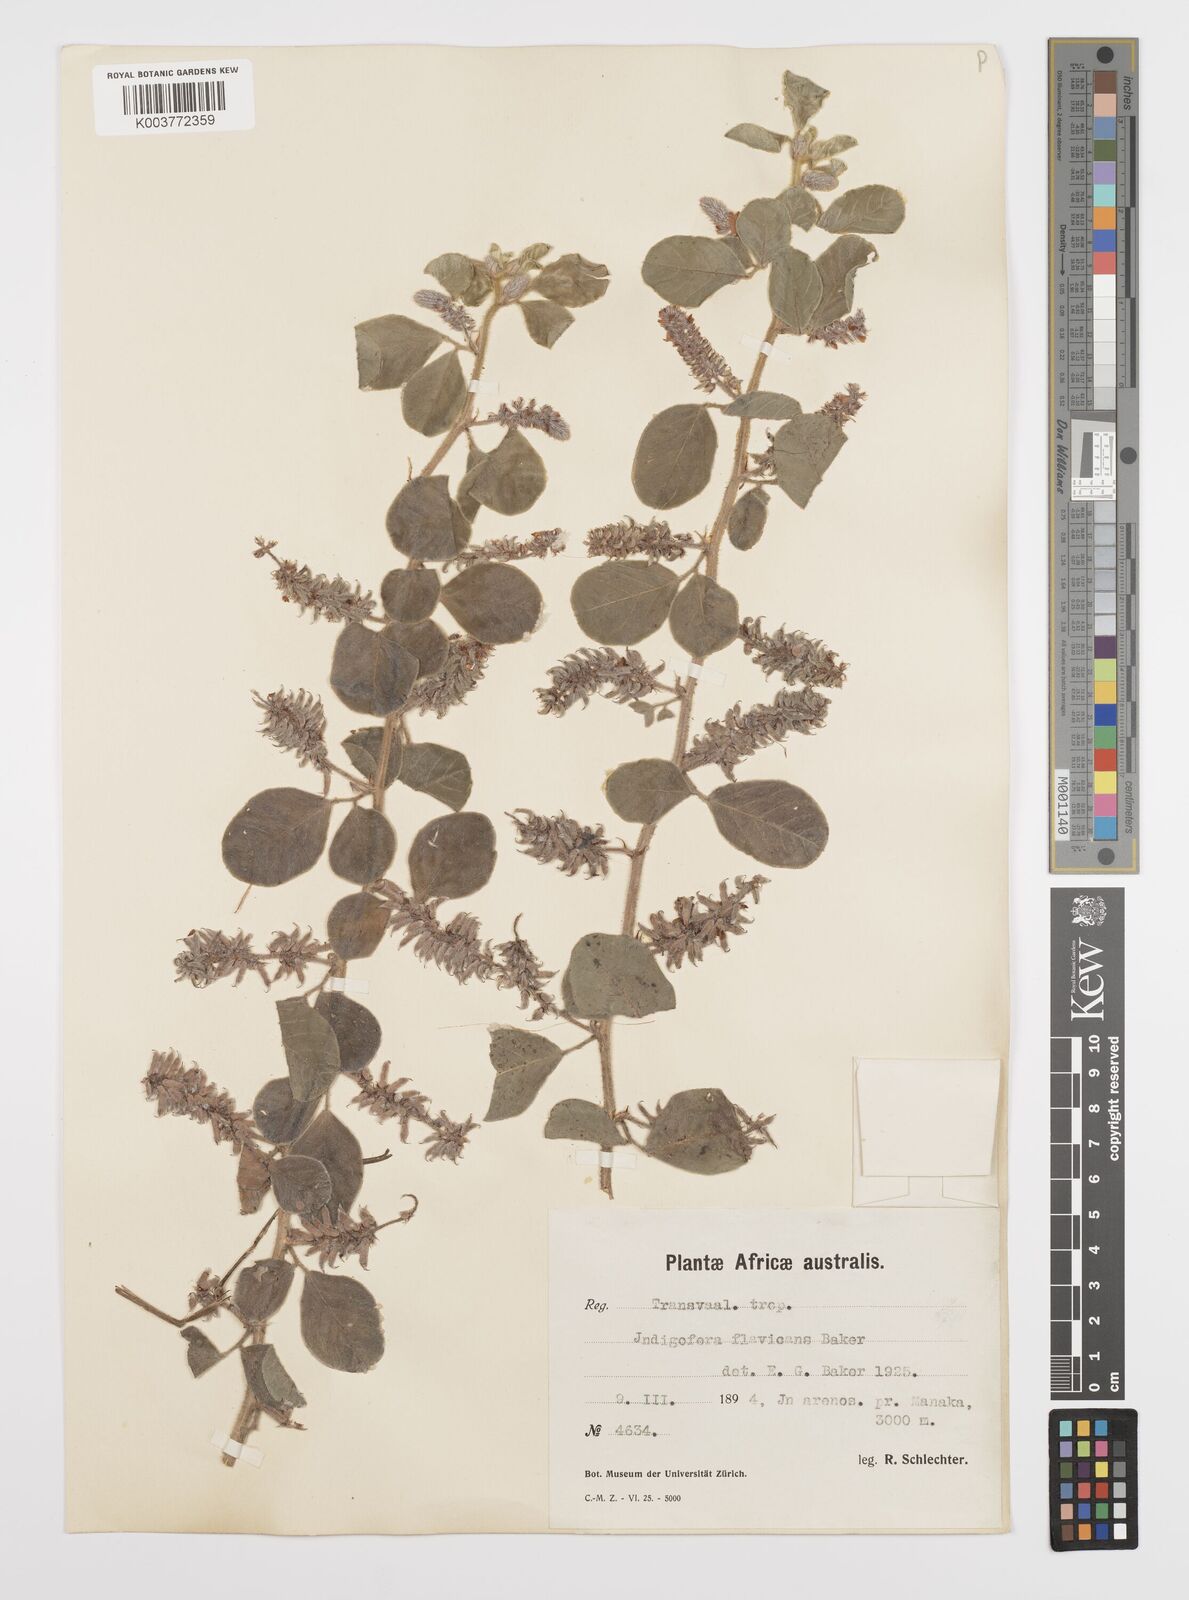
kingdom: Plantae
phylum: Tracheophyta
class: Magnoliopsida
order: Fabales
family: Fabaceae
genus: Indigofera
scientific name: Indigofera flavicans
